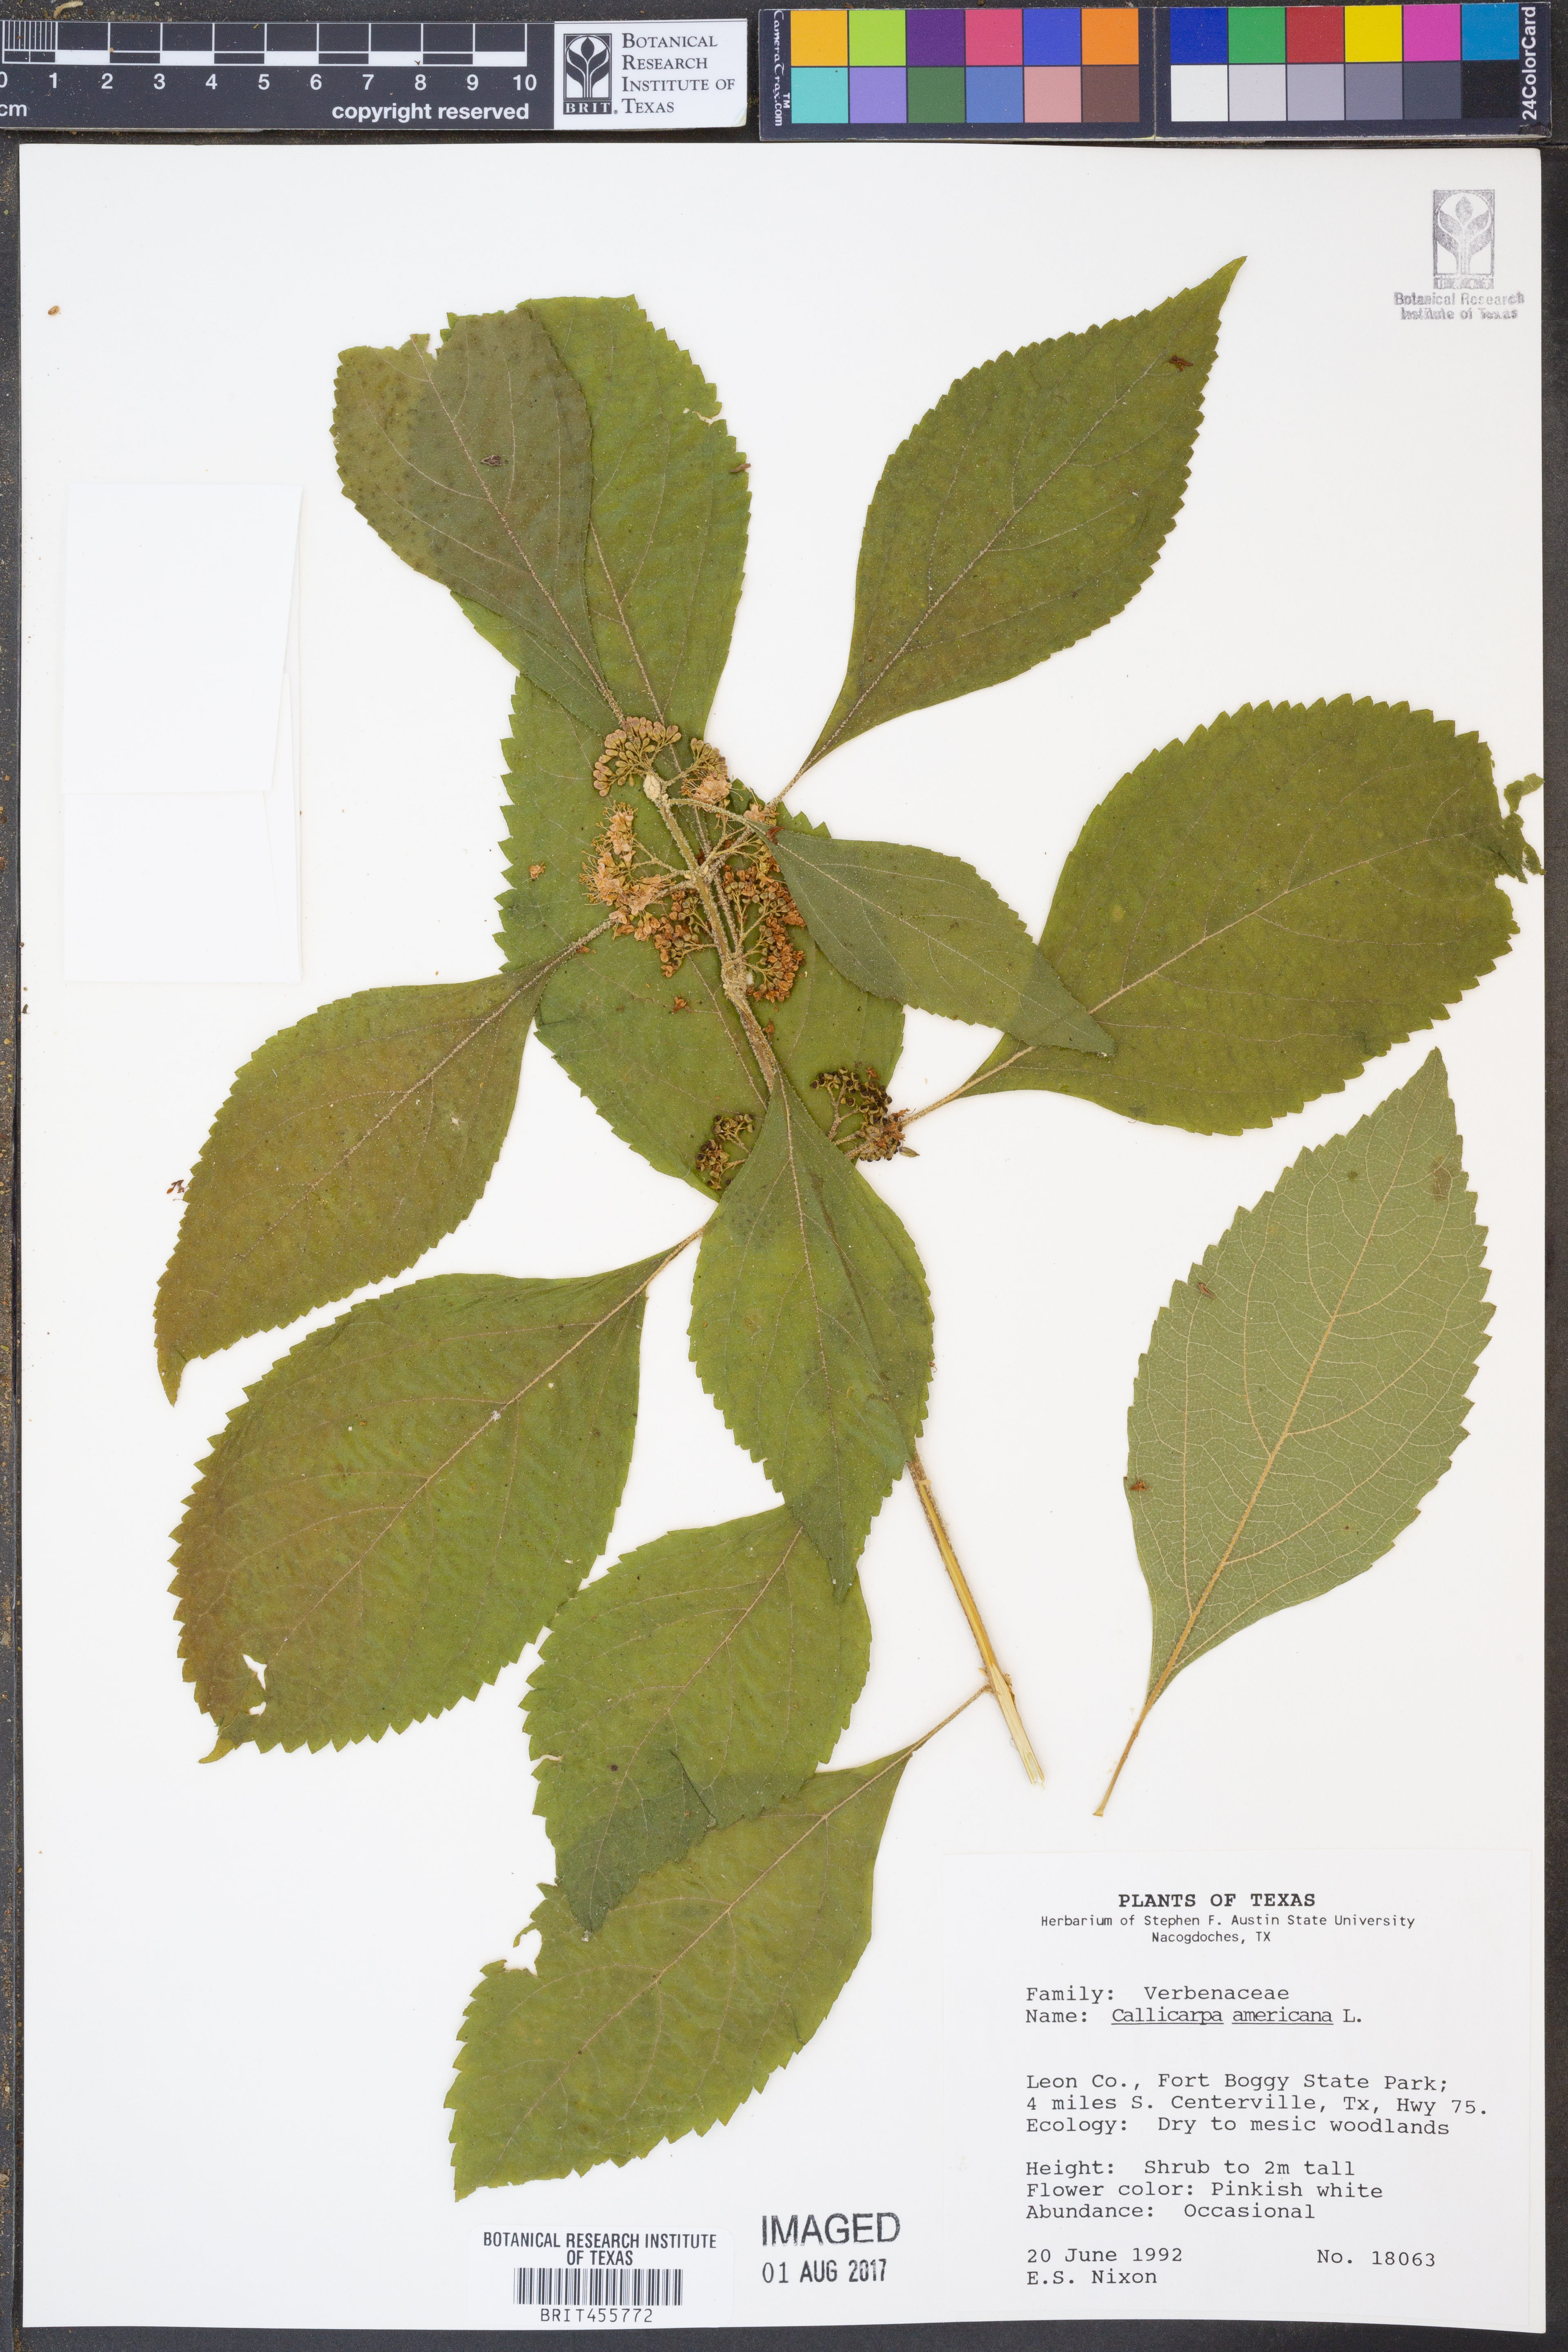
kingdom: Plantae
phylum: Tracheophyta
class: Magnoliopsida
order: Lamiales
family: Lamiaceae
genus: Callicarpa
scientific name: Callicarpa americana
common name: American beautyberry
